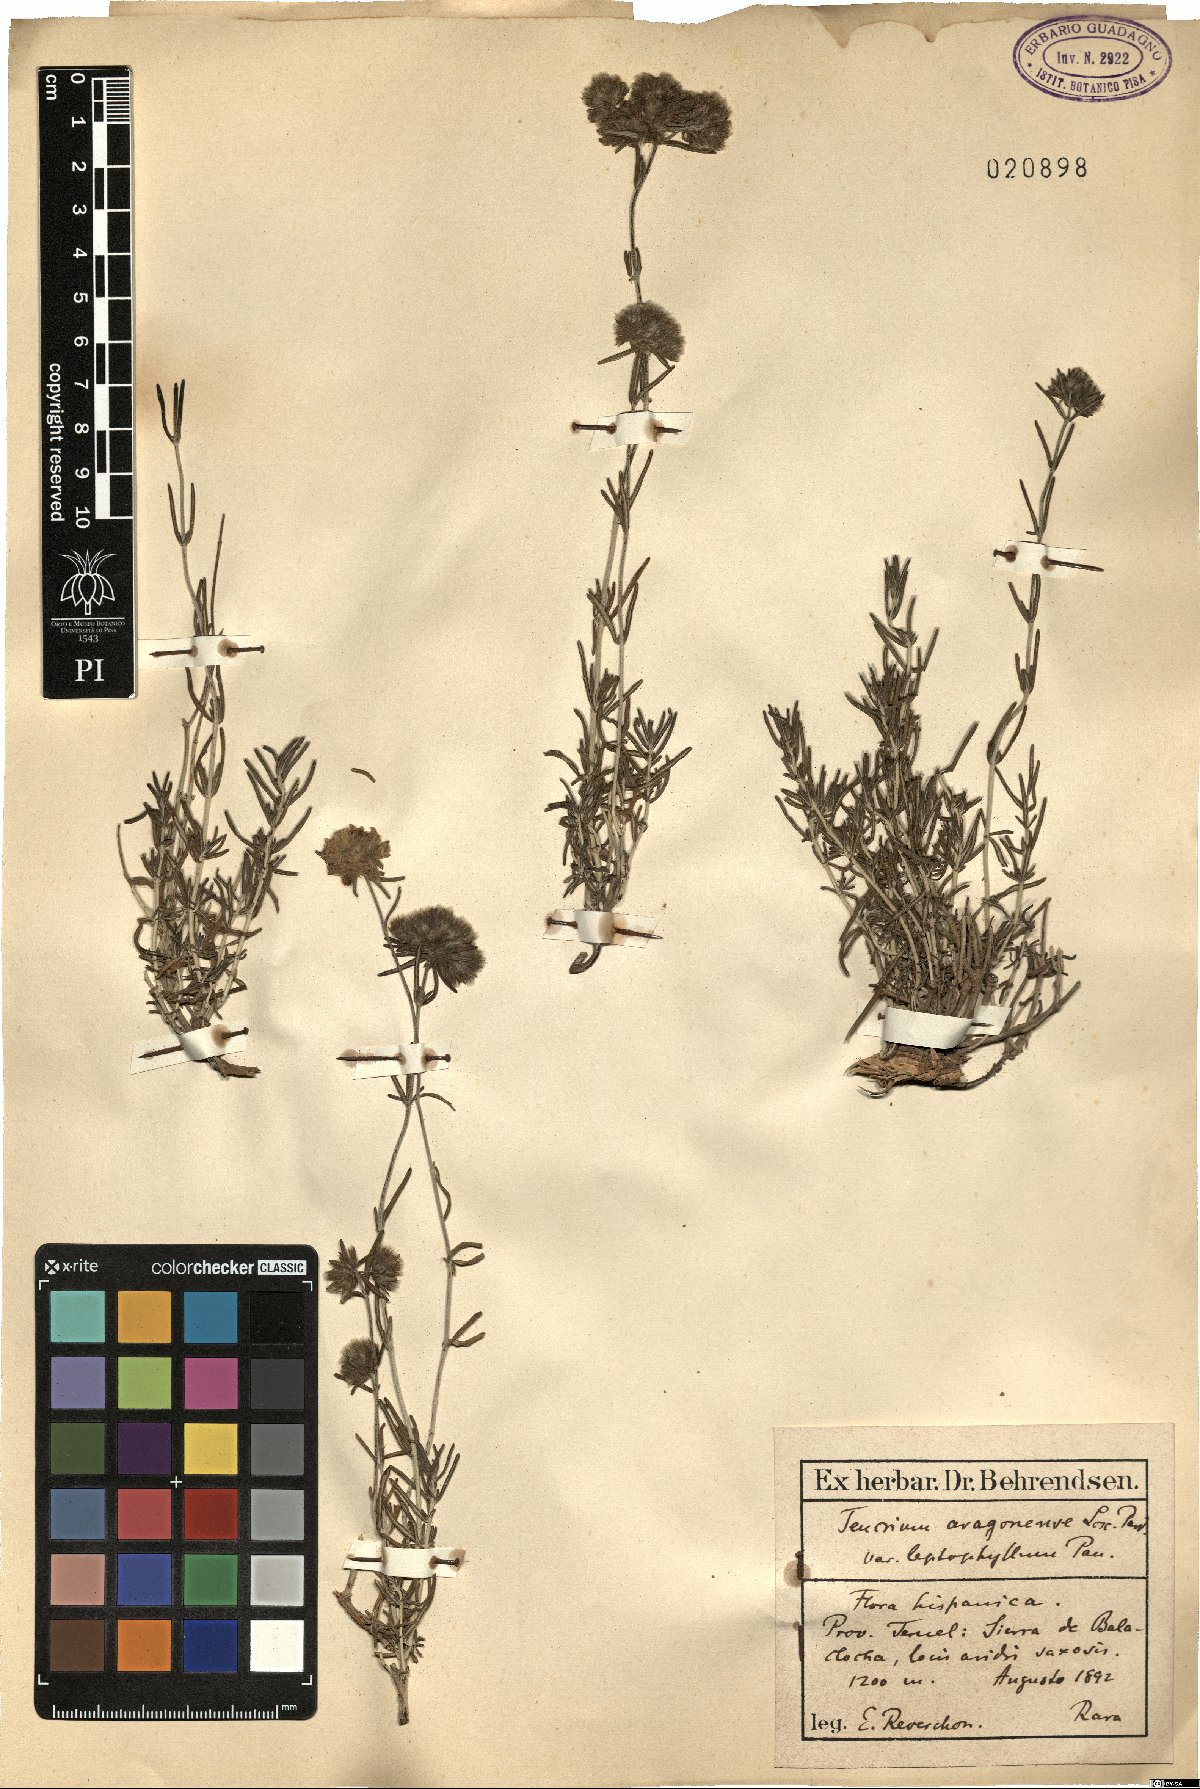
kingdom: Plantae
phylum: Tracheophyta
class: Magnoliopsida
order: Lamiales
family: Lamiaceae
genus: Teucrium
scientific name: Teucrium angustissimum
